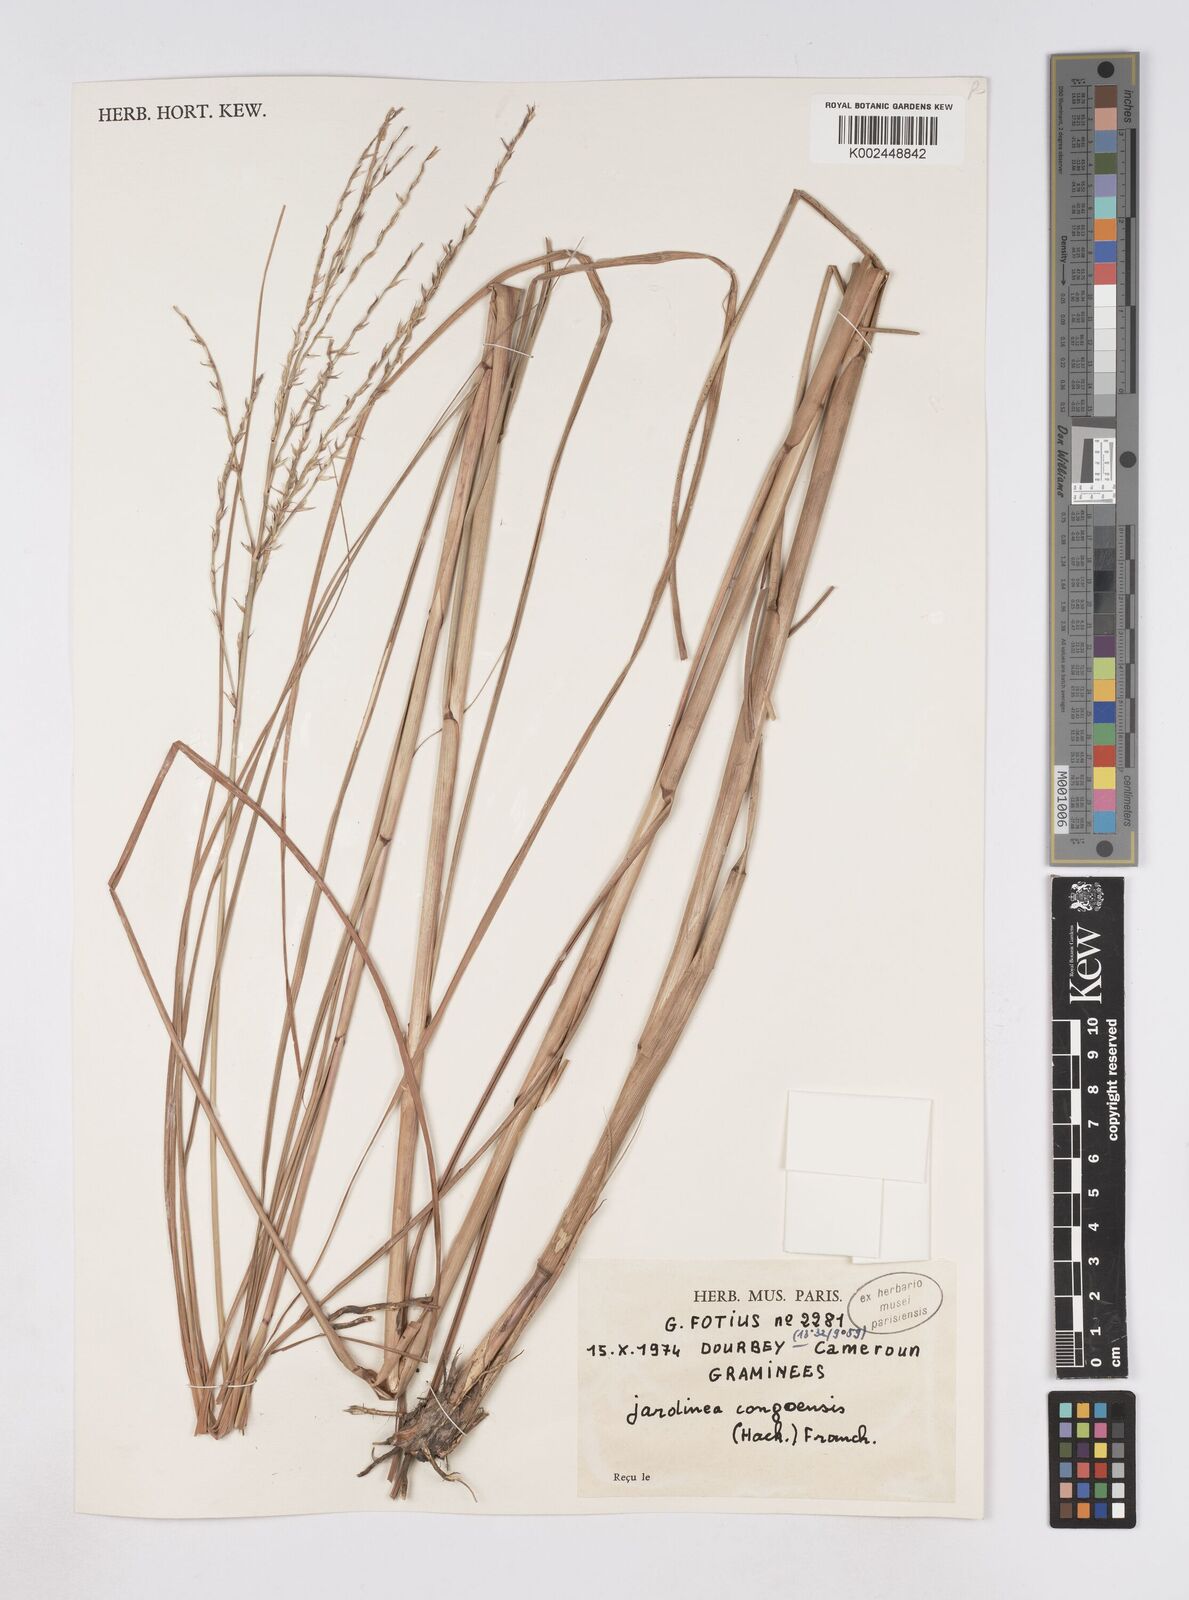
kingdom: Plantae
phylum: Tracheophyta
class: Liliopsida
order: Poales
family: Poaceae
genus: Phacelurus
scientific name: Phacelurus gabonensis
